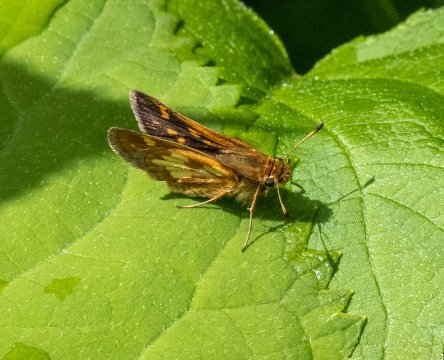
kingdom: Animalia
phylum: Arthropoda
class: Insecta
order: Lepidoptera
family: Hesperiidae
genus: Polites
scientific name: Polites coras
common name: Peck's Skipper
